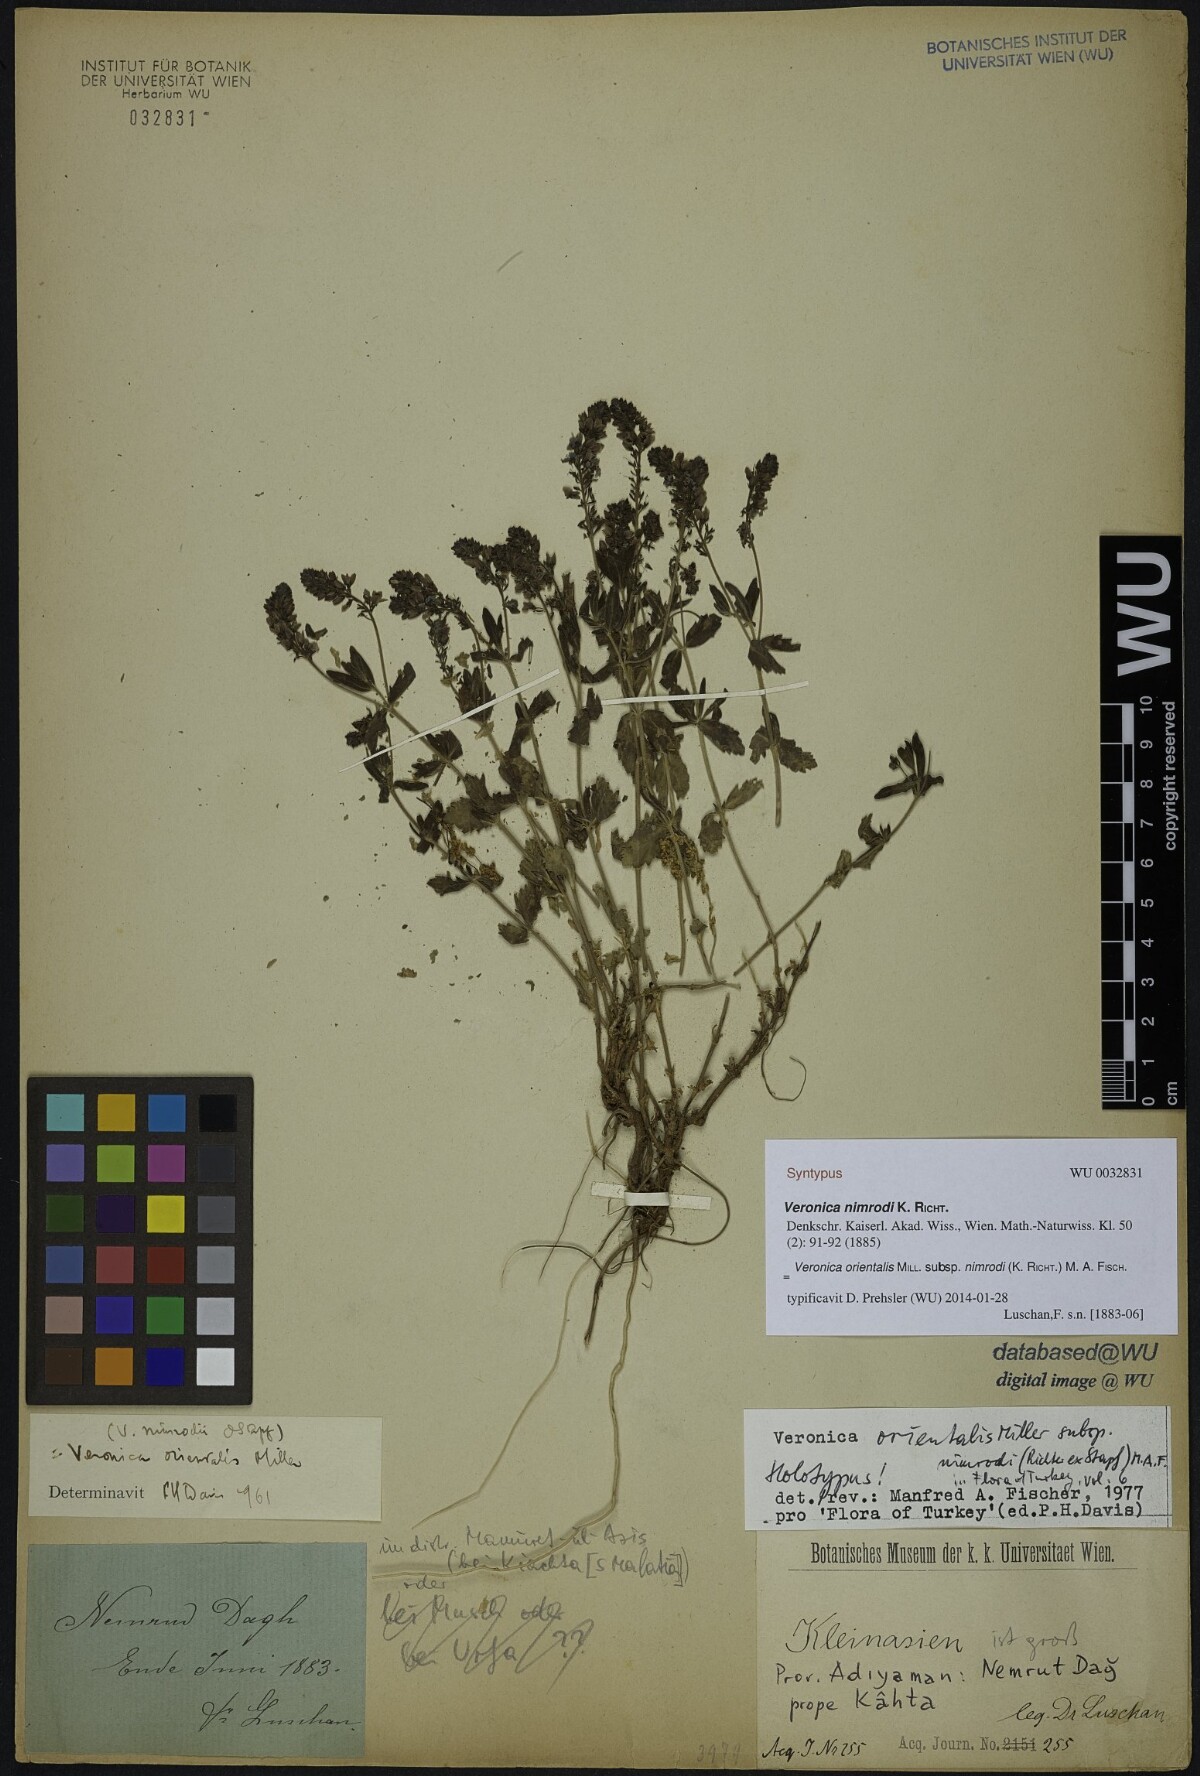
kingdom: Plantae
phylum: Tracheophyta
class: Magnoliopsida
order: Lamiales
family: Plantaginaceae
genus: Veronica
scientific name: Veronica orientalis
